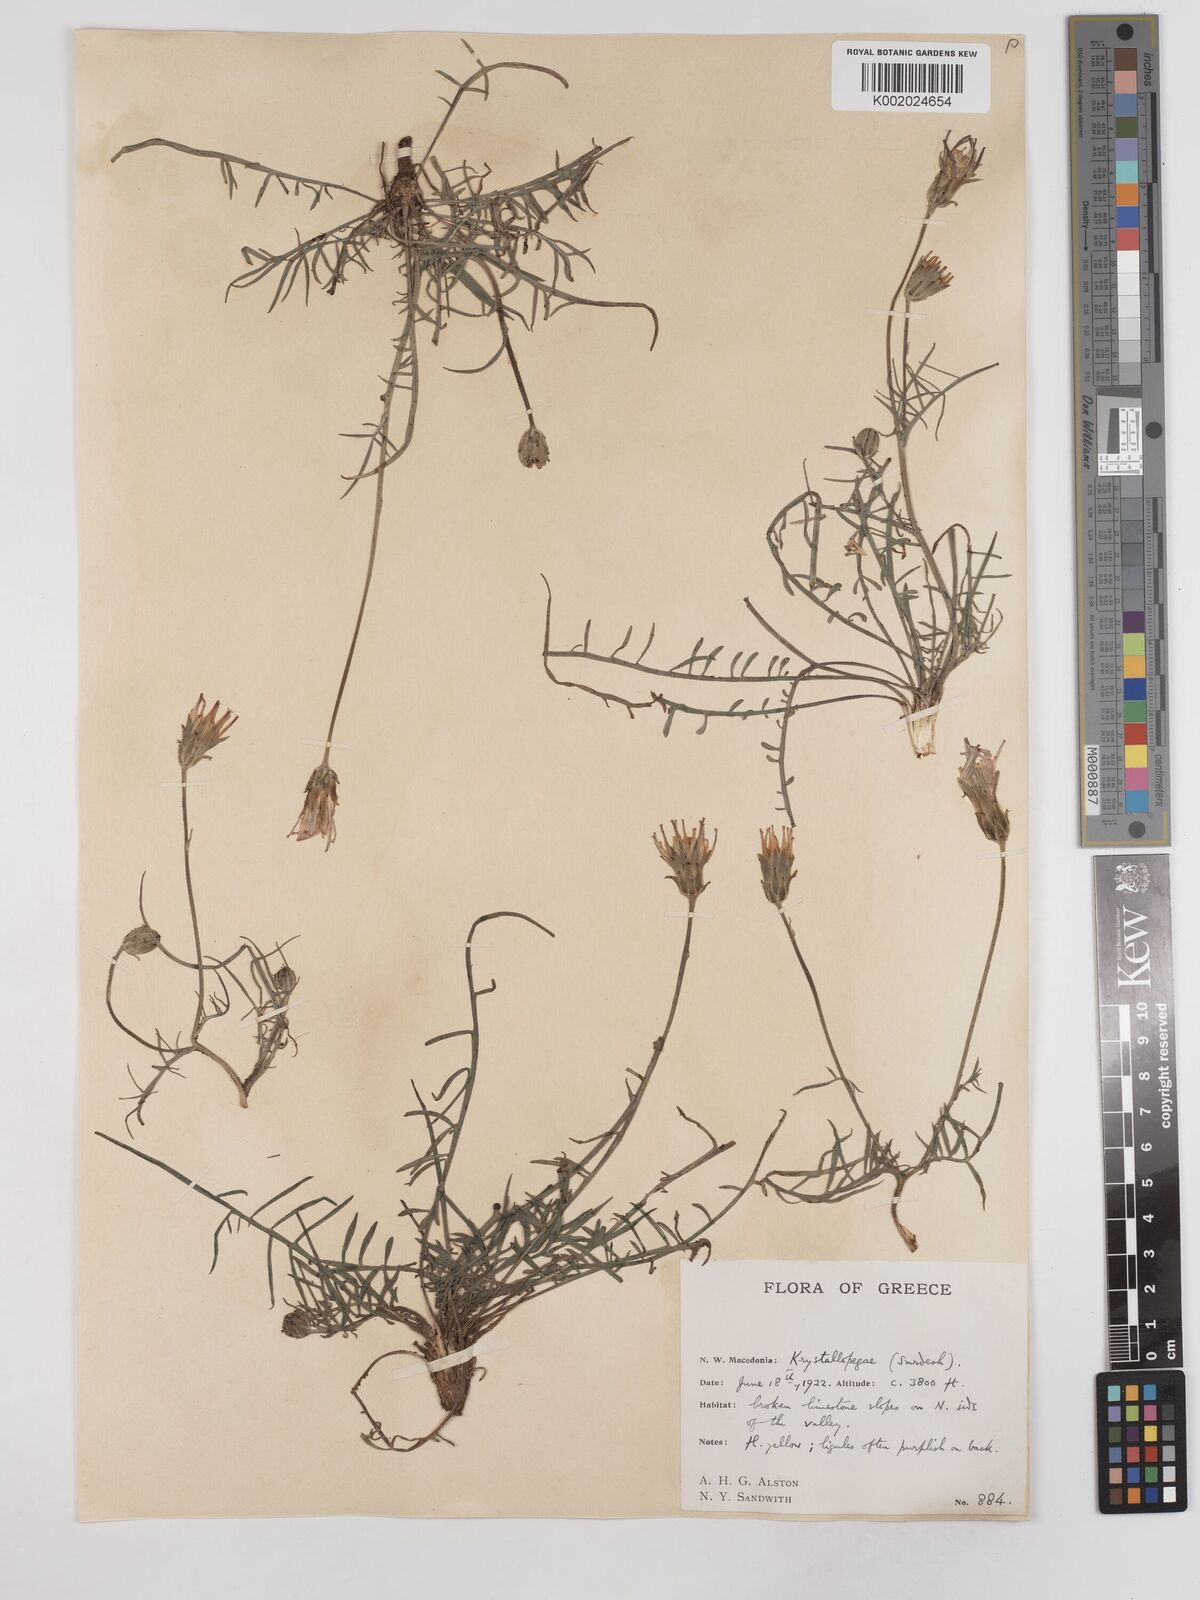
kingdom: Plantae
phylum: Tracheophyta
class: Magnoliopsida
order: Asterales
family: Asteraceae
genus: Scorzonera
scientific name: Scorzonera cana
